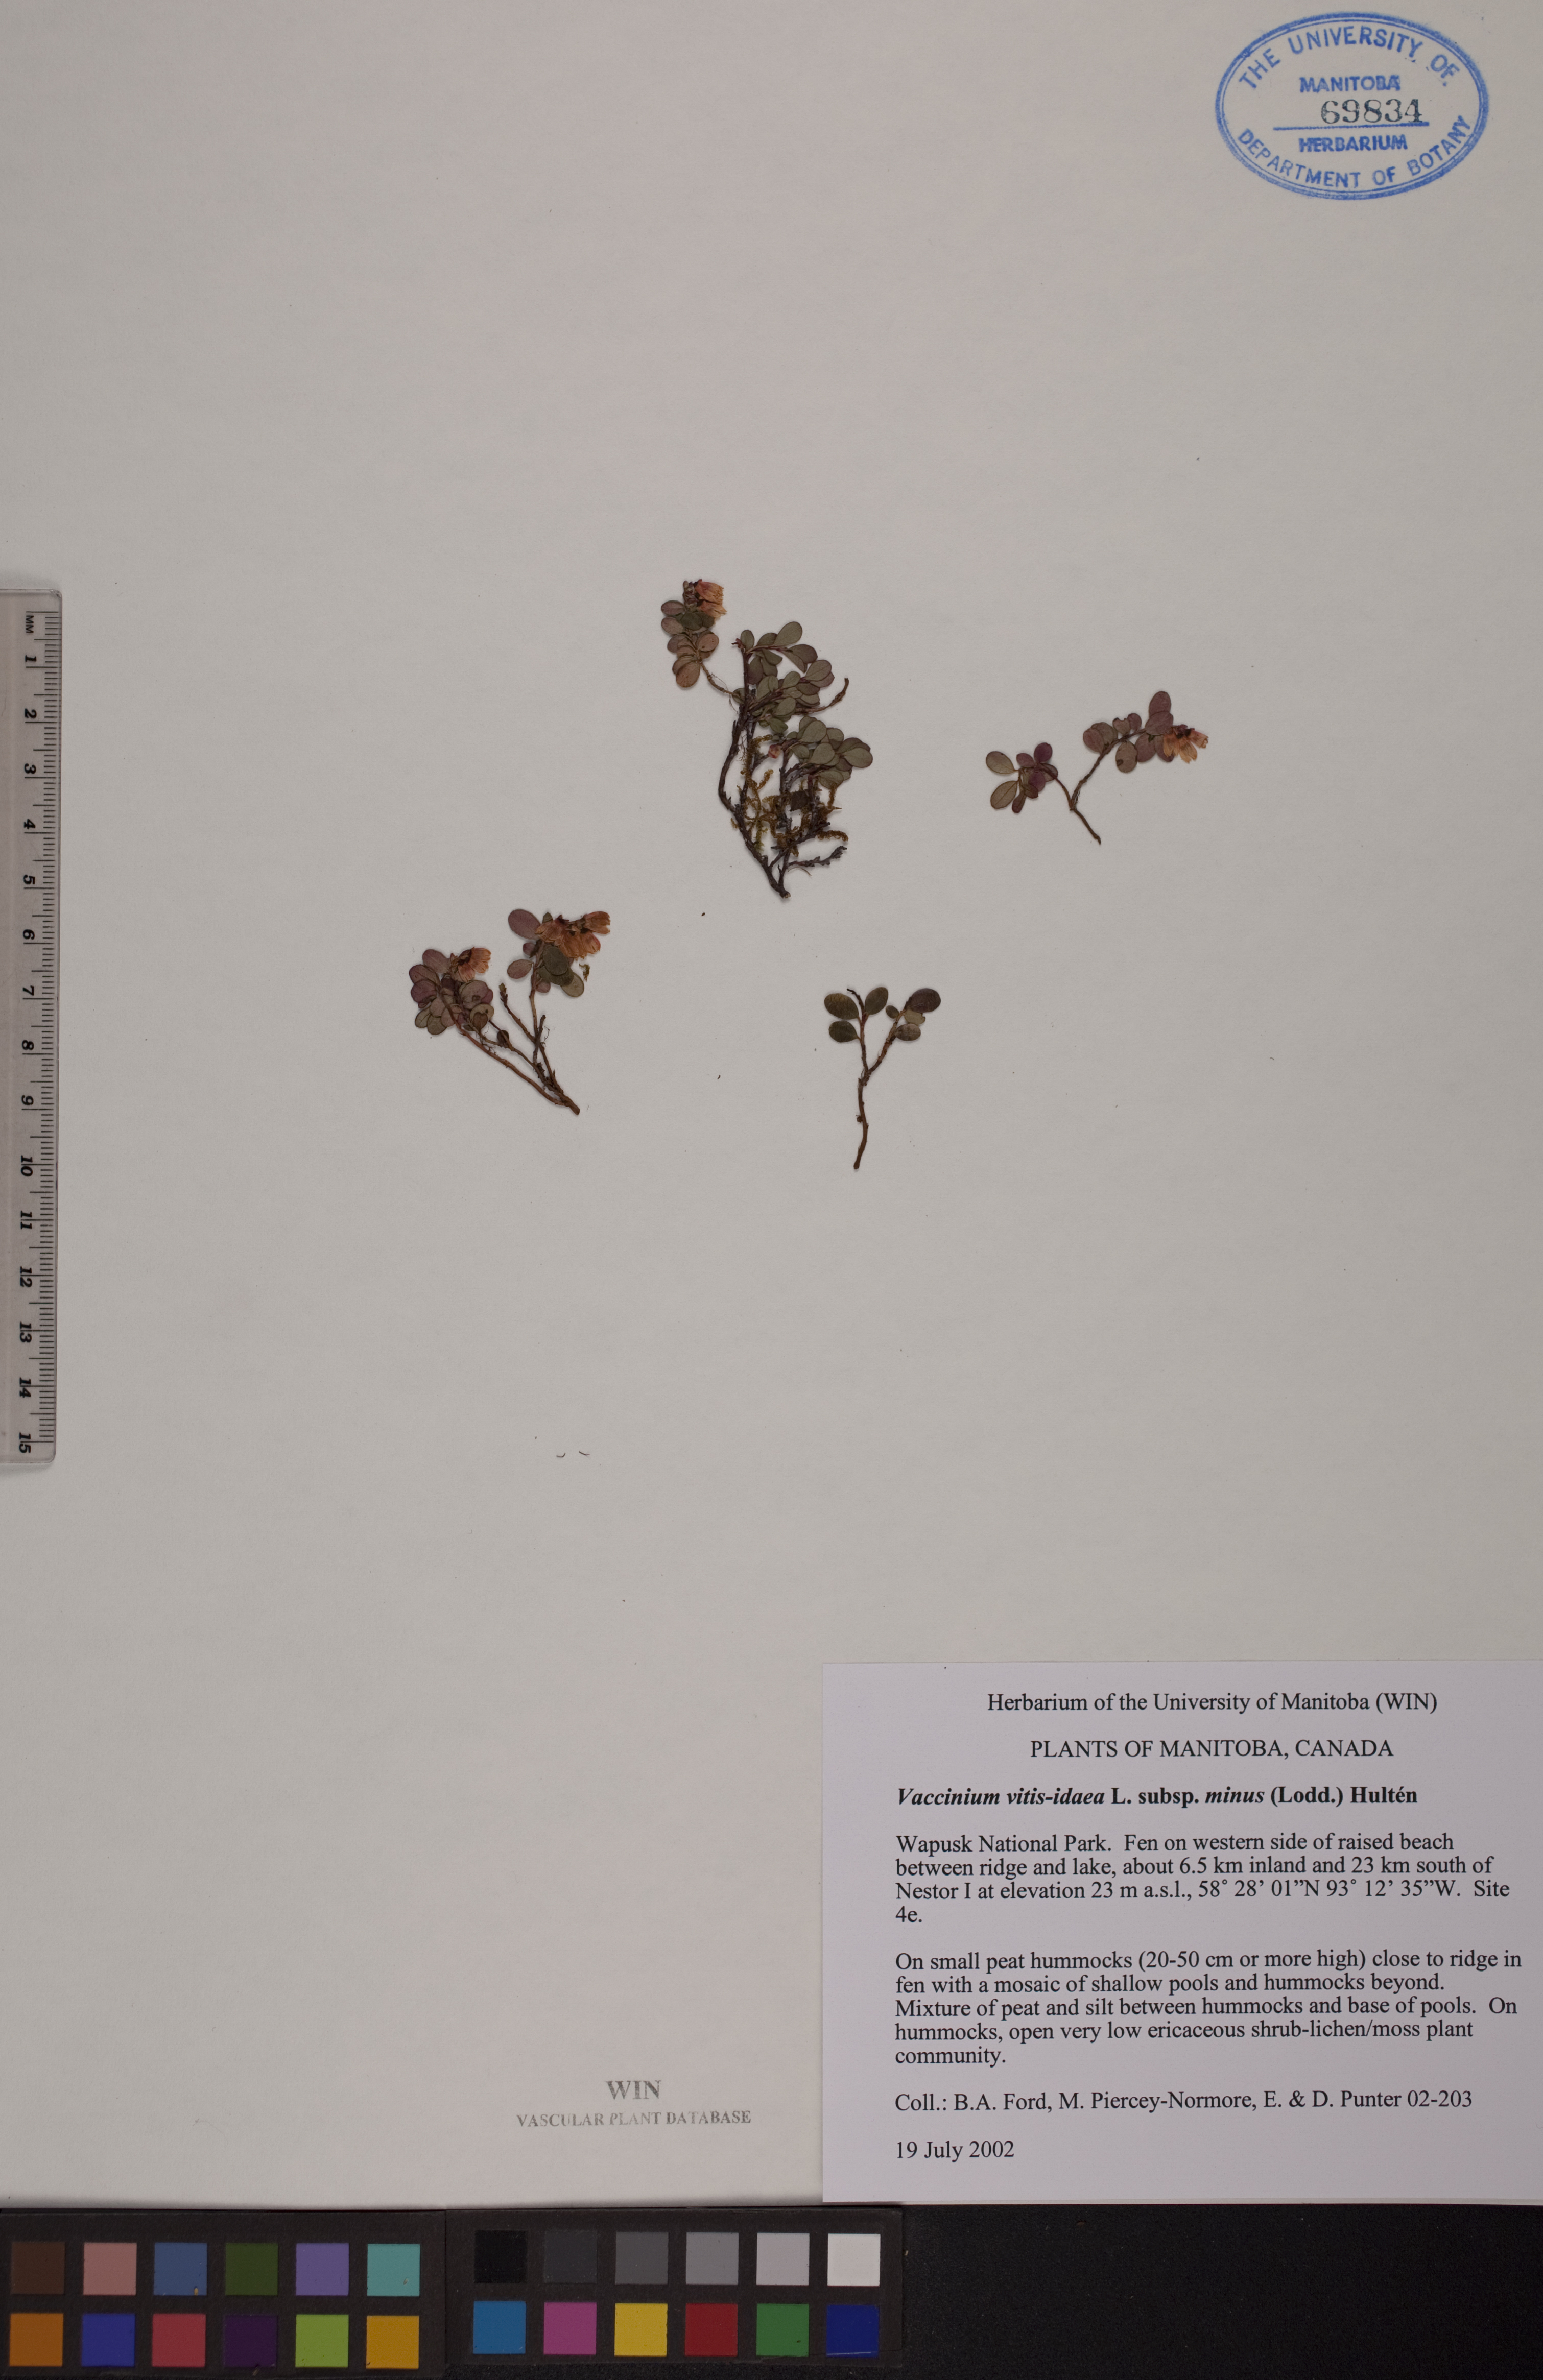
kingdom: Plantae
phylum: Tracheophyta
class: Magnoliopsida
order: Ericales
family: Ericaceae
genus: Vaccinium
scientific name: Vaccinium vitis-idaea
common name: Cowberry
